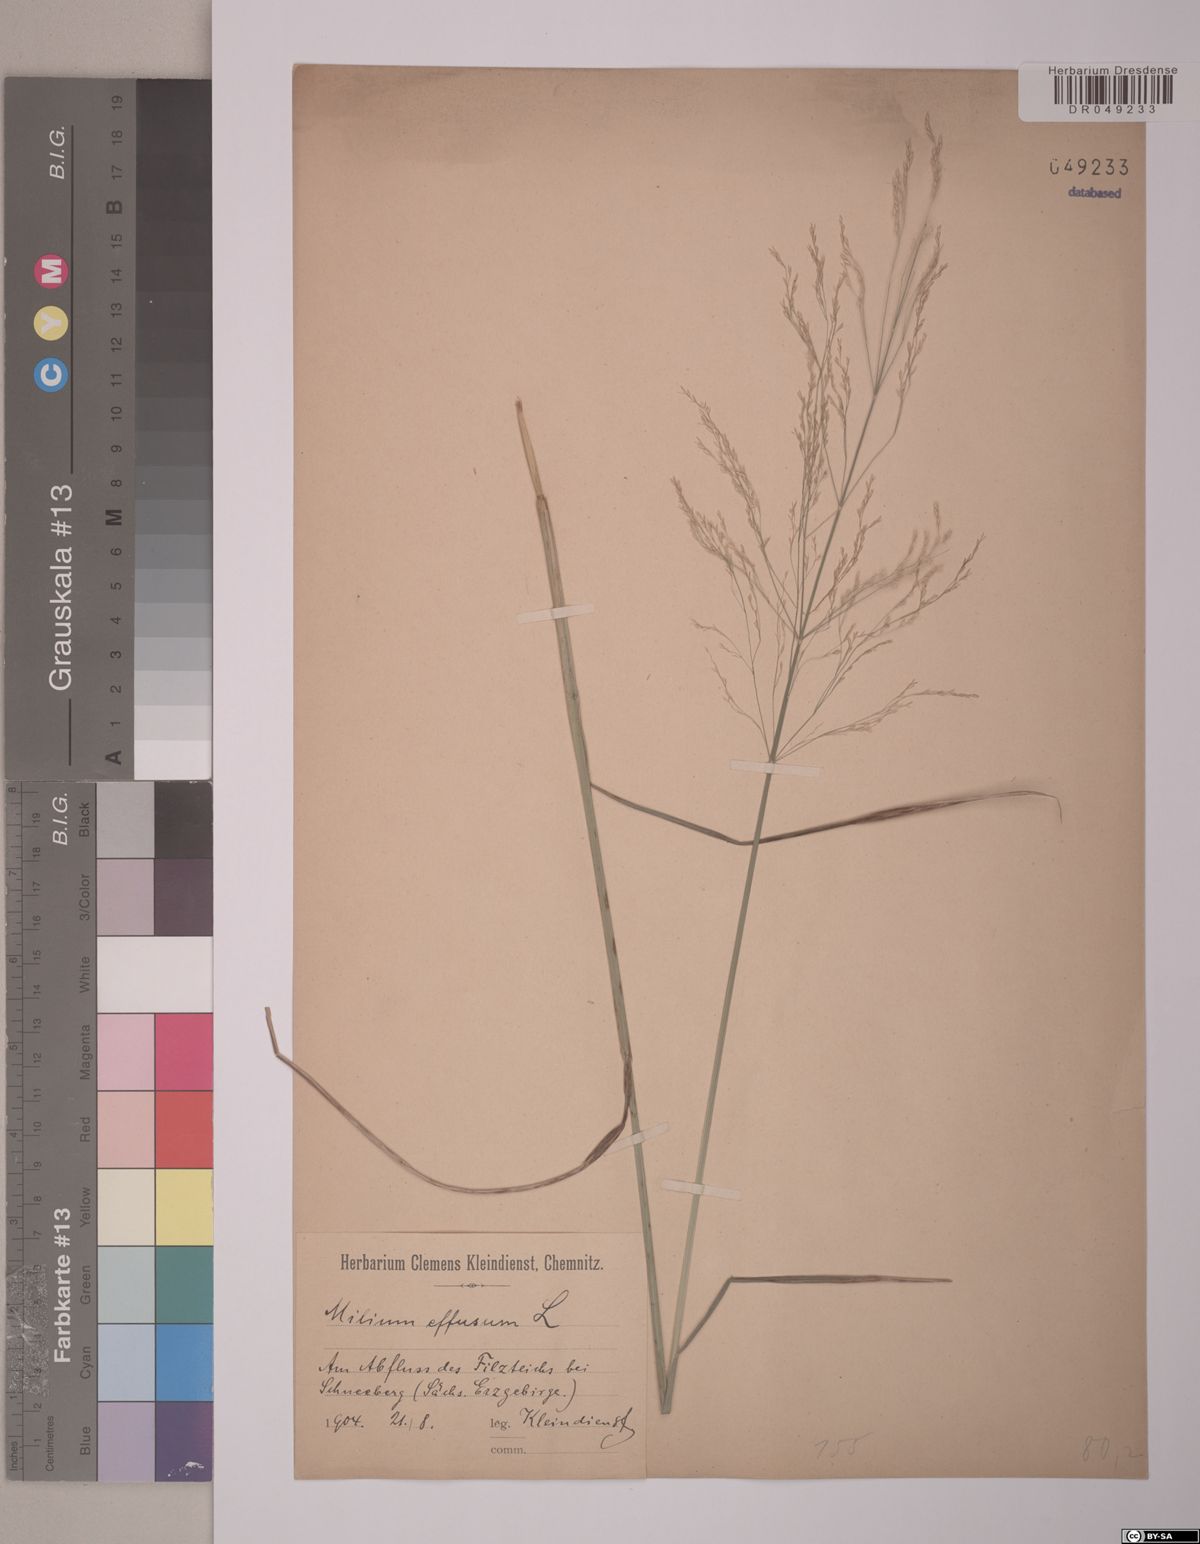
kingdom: Plantae
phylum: Tracheophyta
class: Liliopsida
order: Poales
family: Poaceae
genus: Milium
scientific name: Milium effusum
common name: Wood millet
